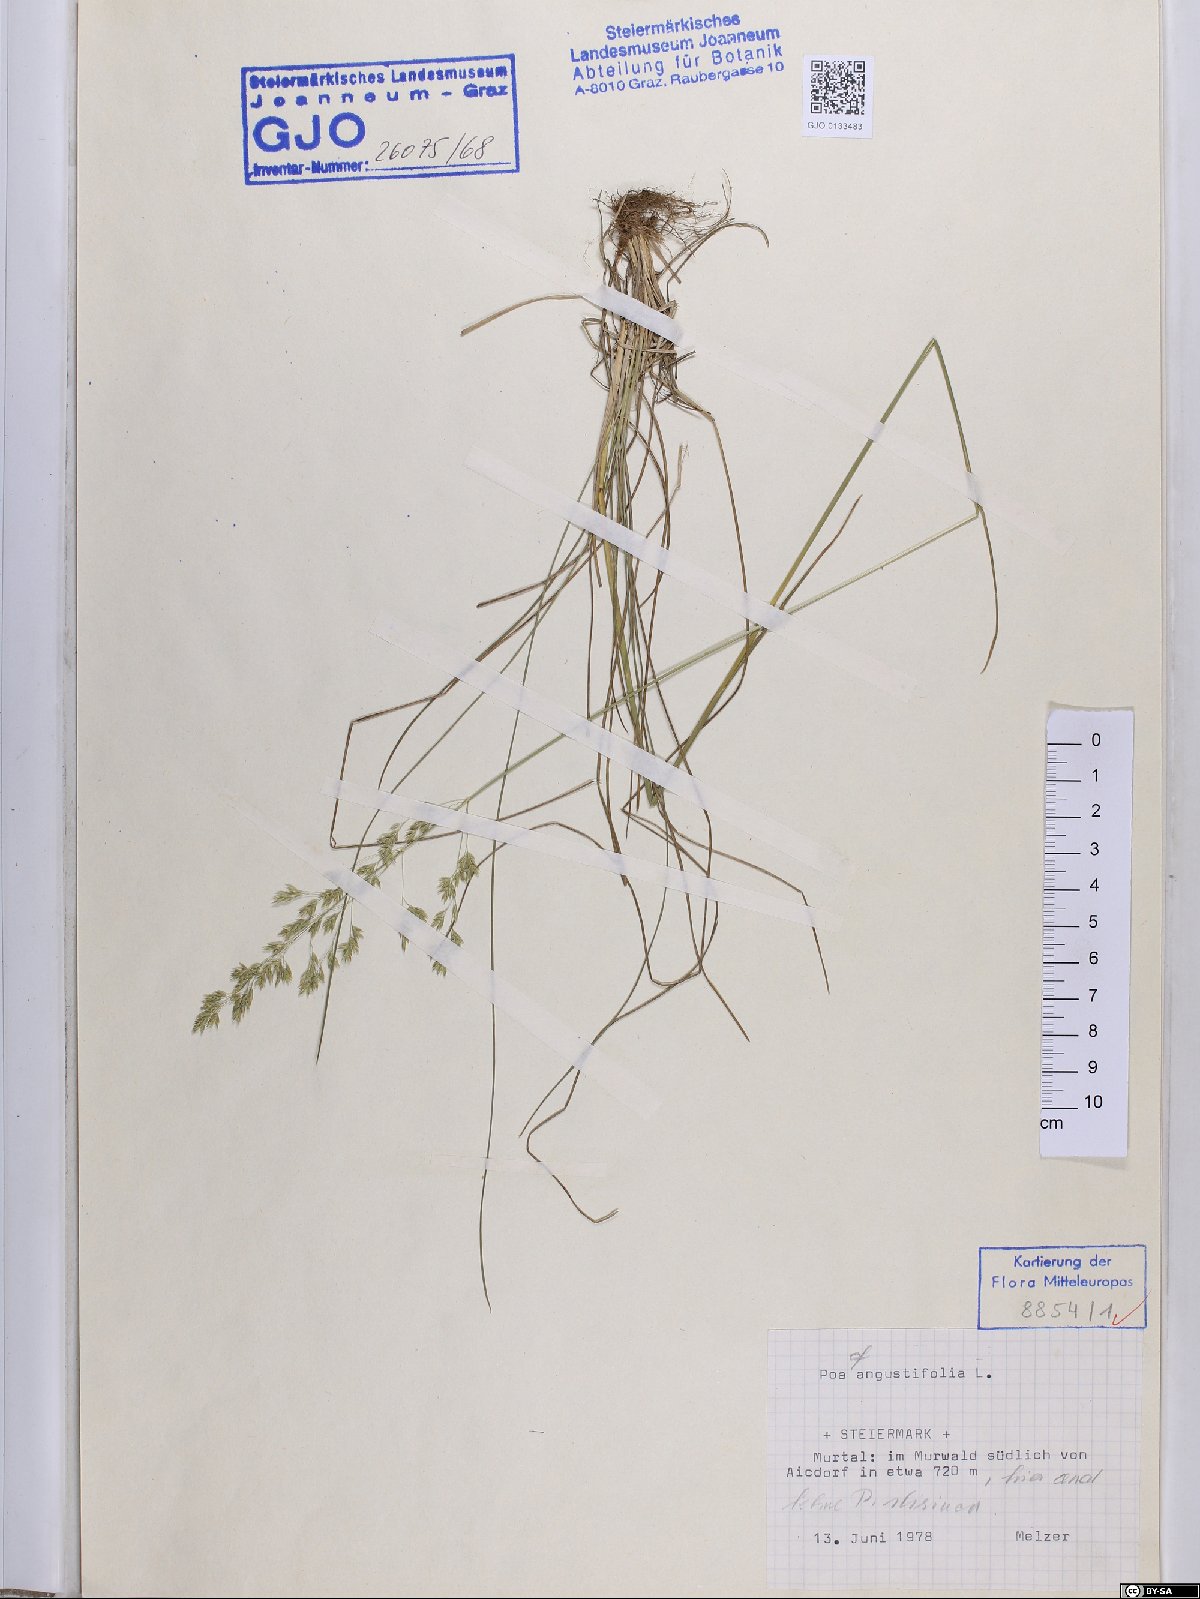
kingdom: Plantae
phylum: Tracheophyta
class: Liliopsida
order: Poales
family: Poaceae
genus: Poa
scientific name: Poa angustifolia
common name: Narrow-leaved meadow-grass
